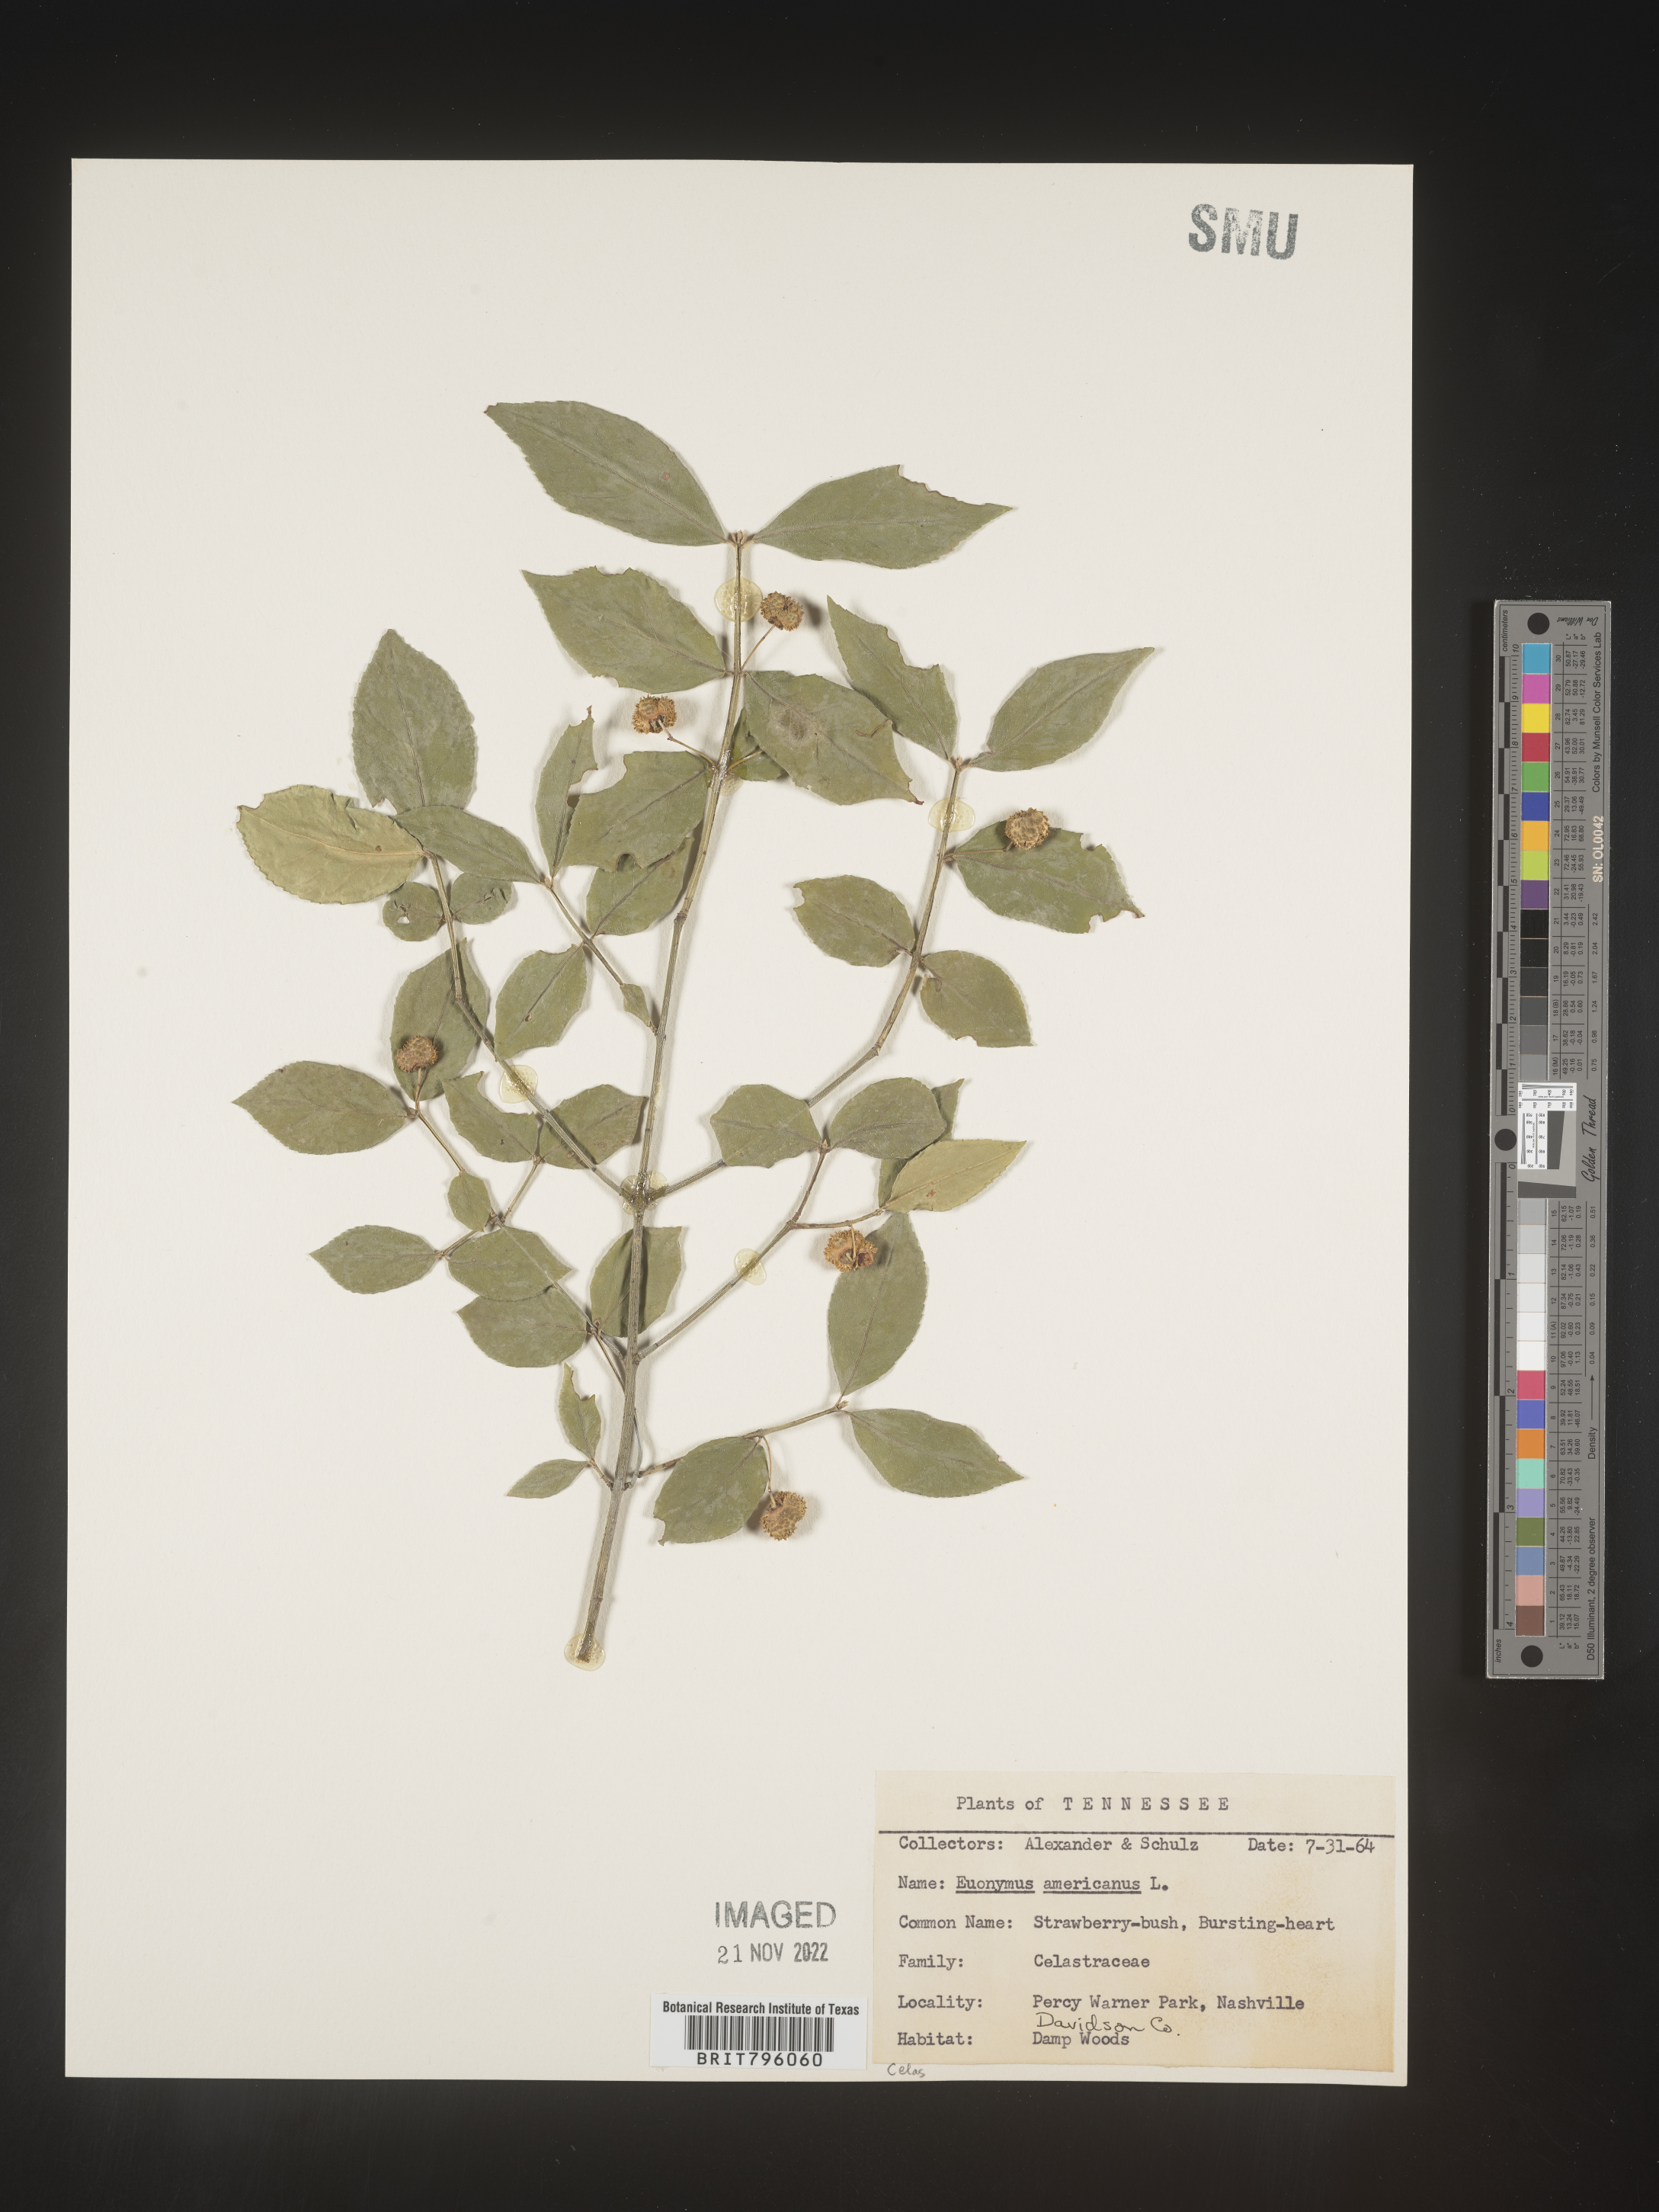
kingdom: Plantae
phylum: Tracheophyta
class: Magnoliopsida
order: Celastrales
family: Celastraceae
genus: Euonymus
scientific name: Euonymus americanus
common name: Bursting-heart
